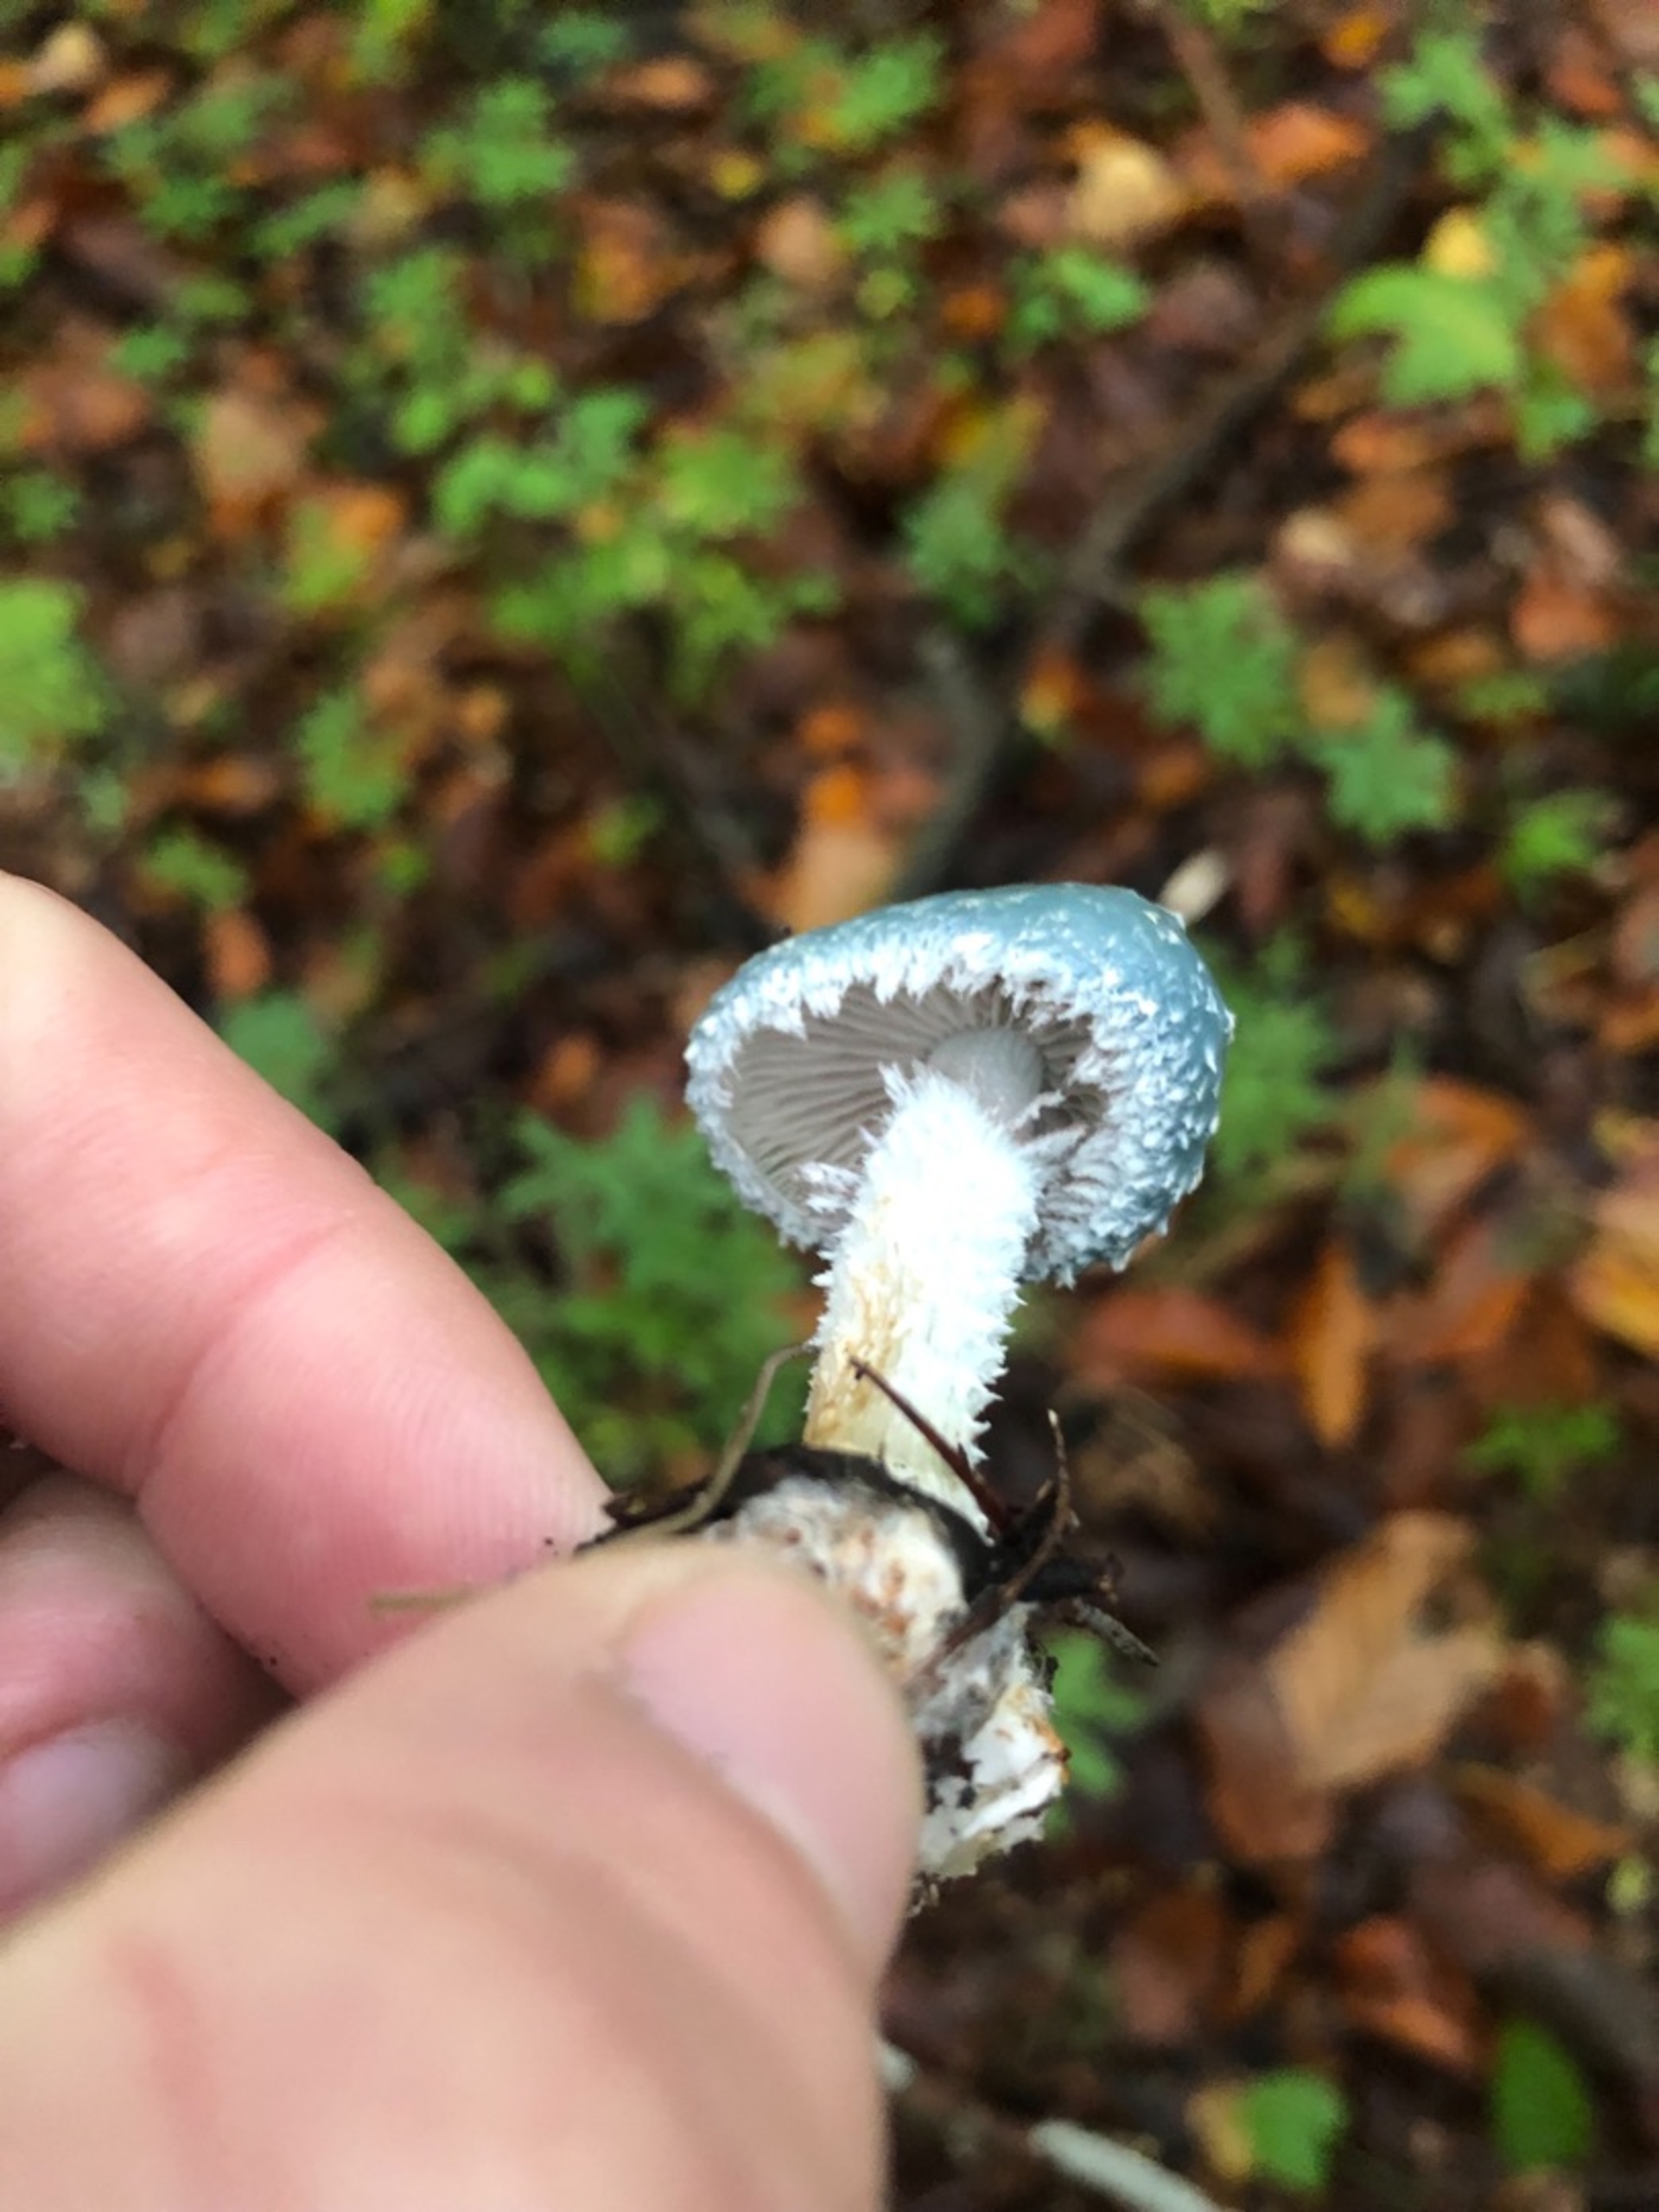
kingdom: Fungi
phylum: Basidiomycota
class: Agaricomycetes
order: Agaricales
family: Strophariaceae
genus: Stropharia
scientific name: Stropharia aeruginosa
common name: Spanskgrøn bredblad
